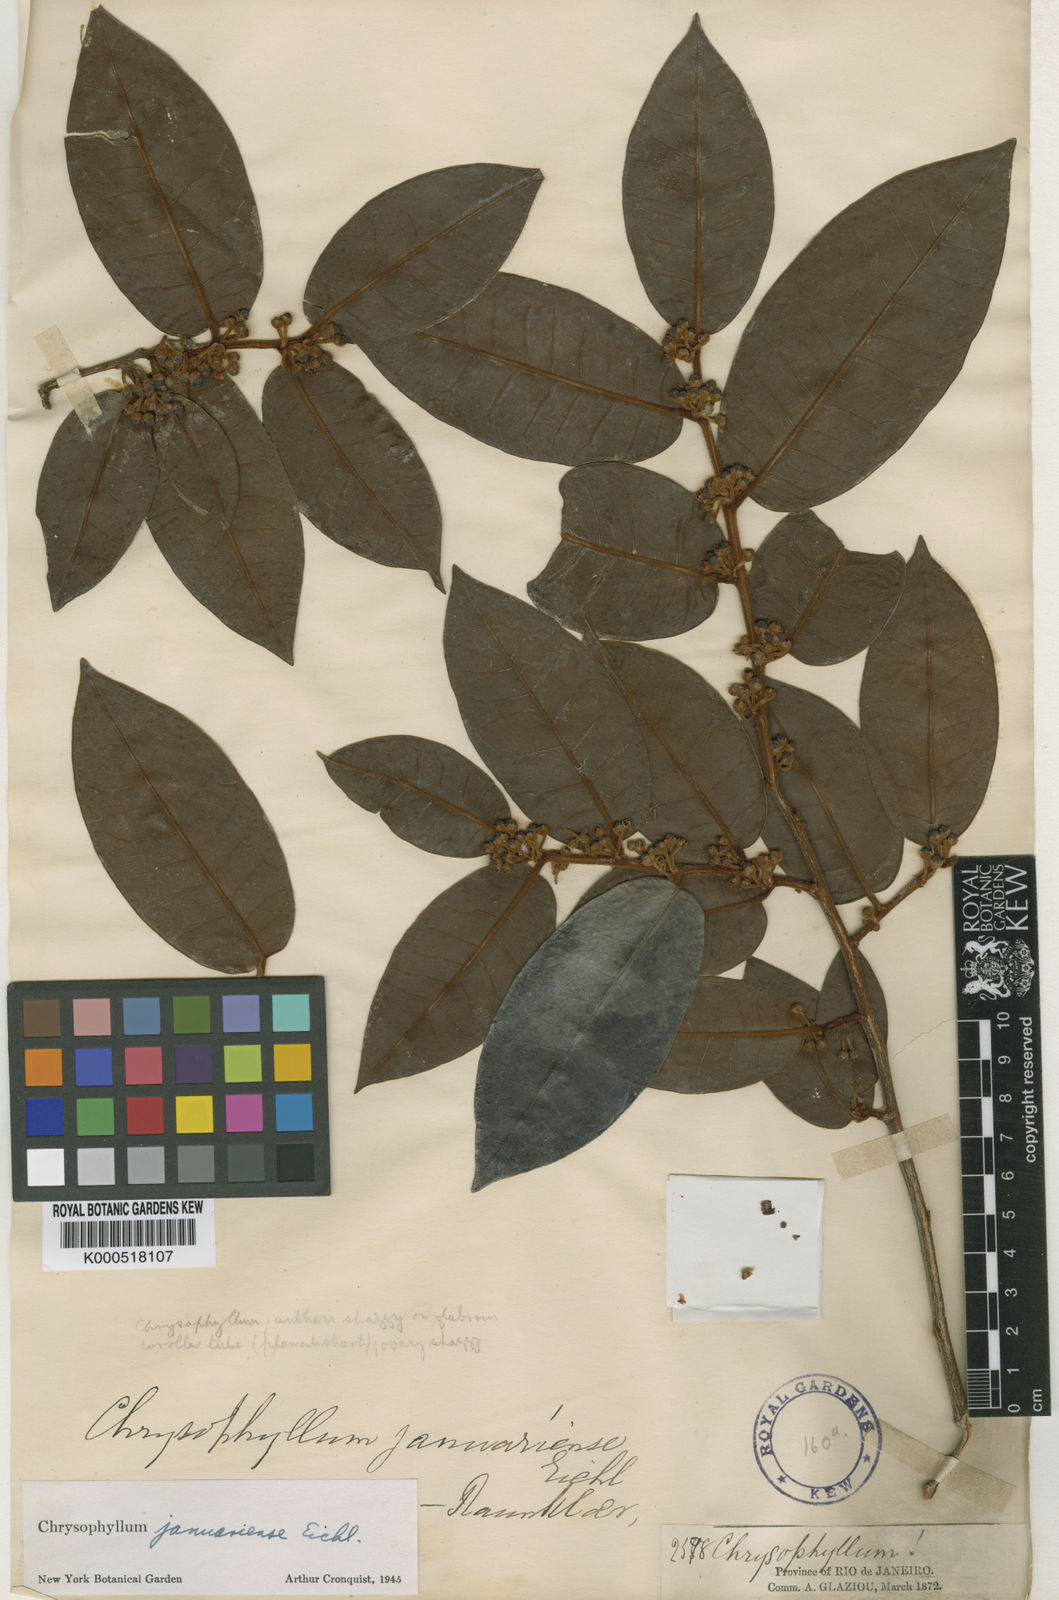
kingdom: Plantae
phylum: Tracheophyta
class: Magnoliopsida
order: Ericales
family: Sapotaceae
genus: Chrysophyllum
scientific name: Chrysophyllum januariense
